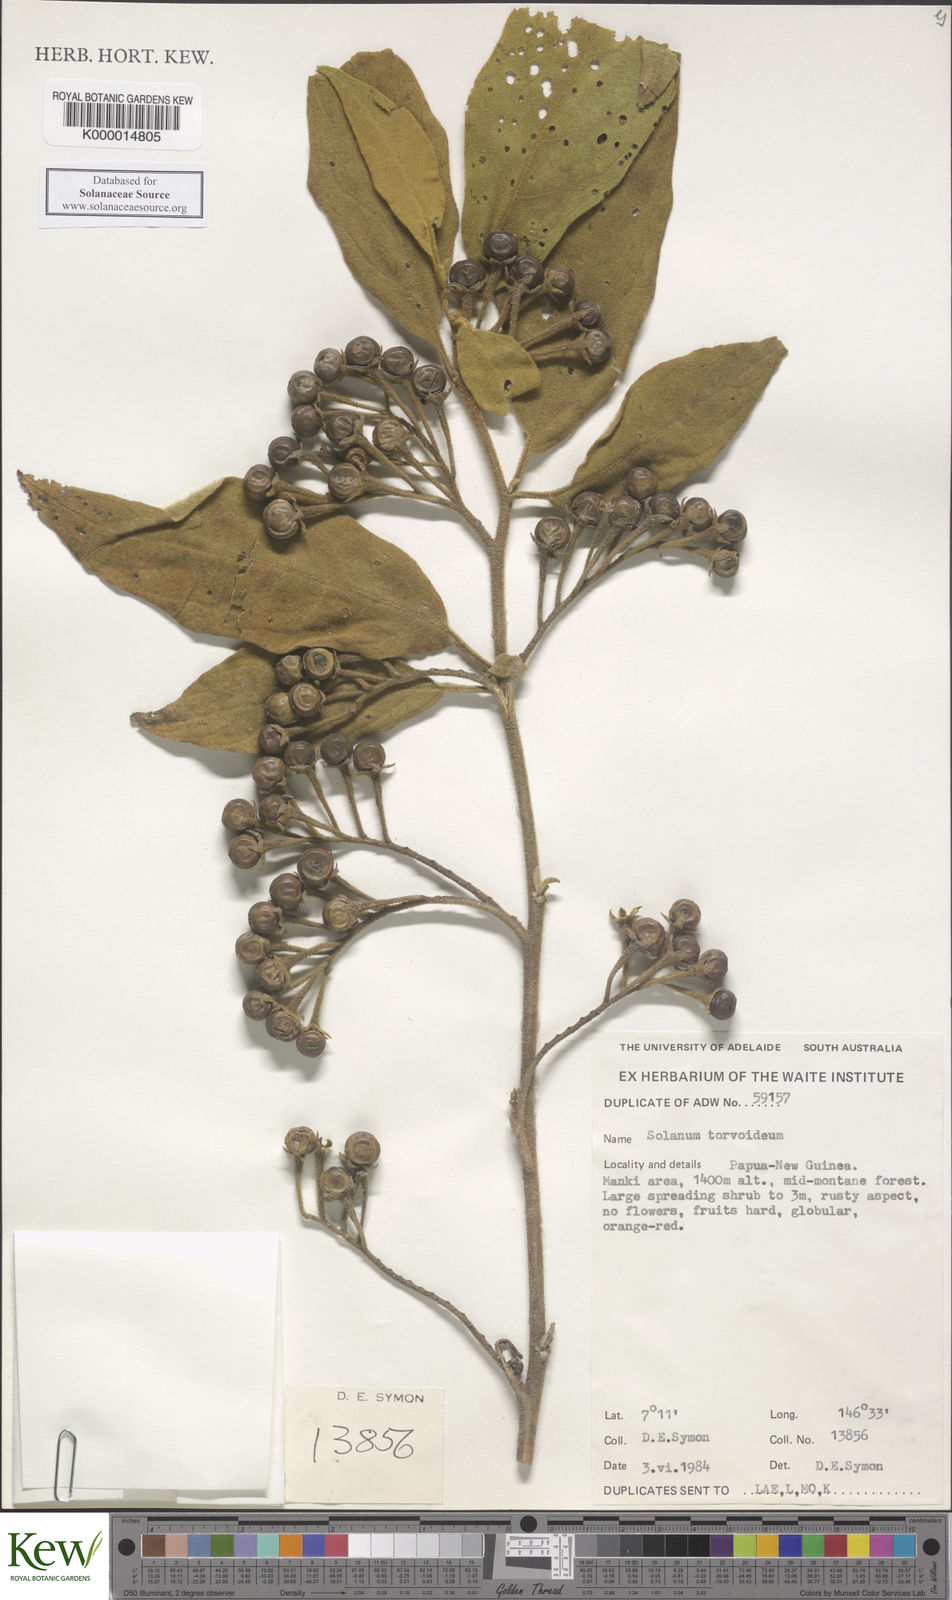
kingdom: Plantae
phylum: Tracheophyta
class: Magnoliopsida
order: Solanales
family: Solanaceae
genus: Solanum
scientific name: Solanum torvoideum
